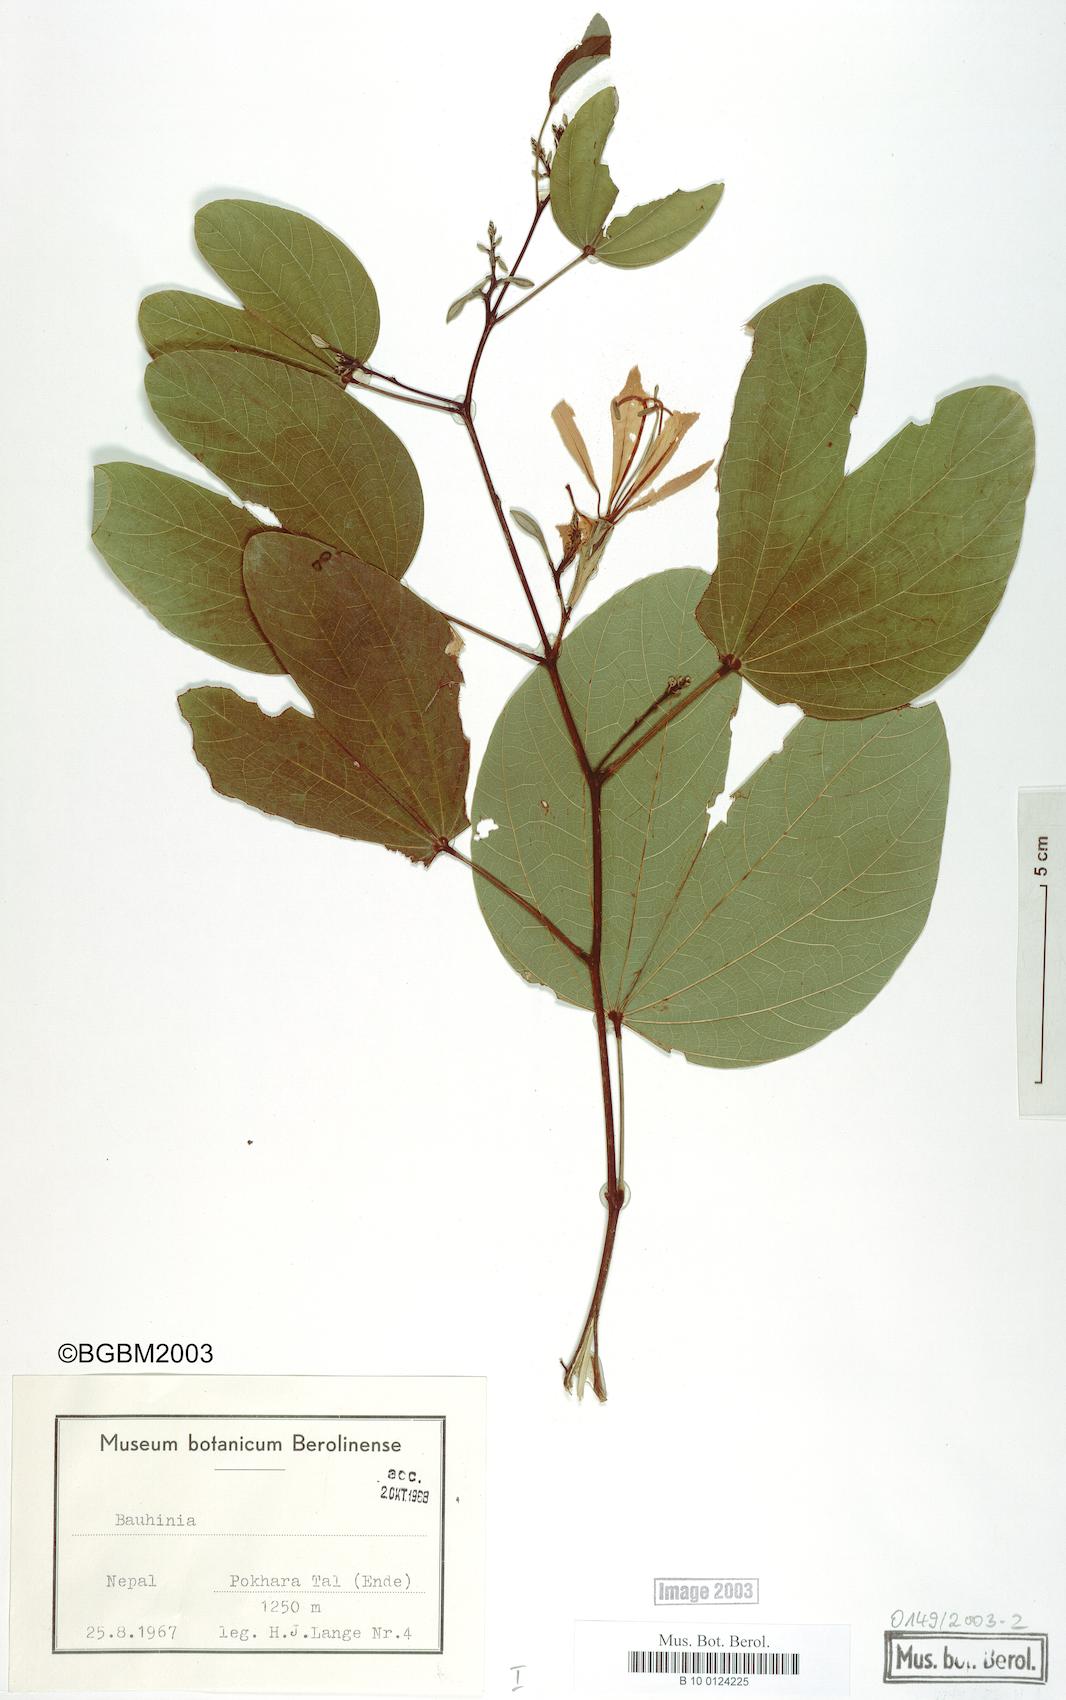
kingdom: Plantae
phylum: Tracheophyta
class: Magnoliopsida
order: Fabales
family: Fabaceae
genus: Bauhinia
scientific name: Bauhinia
